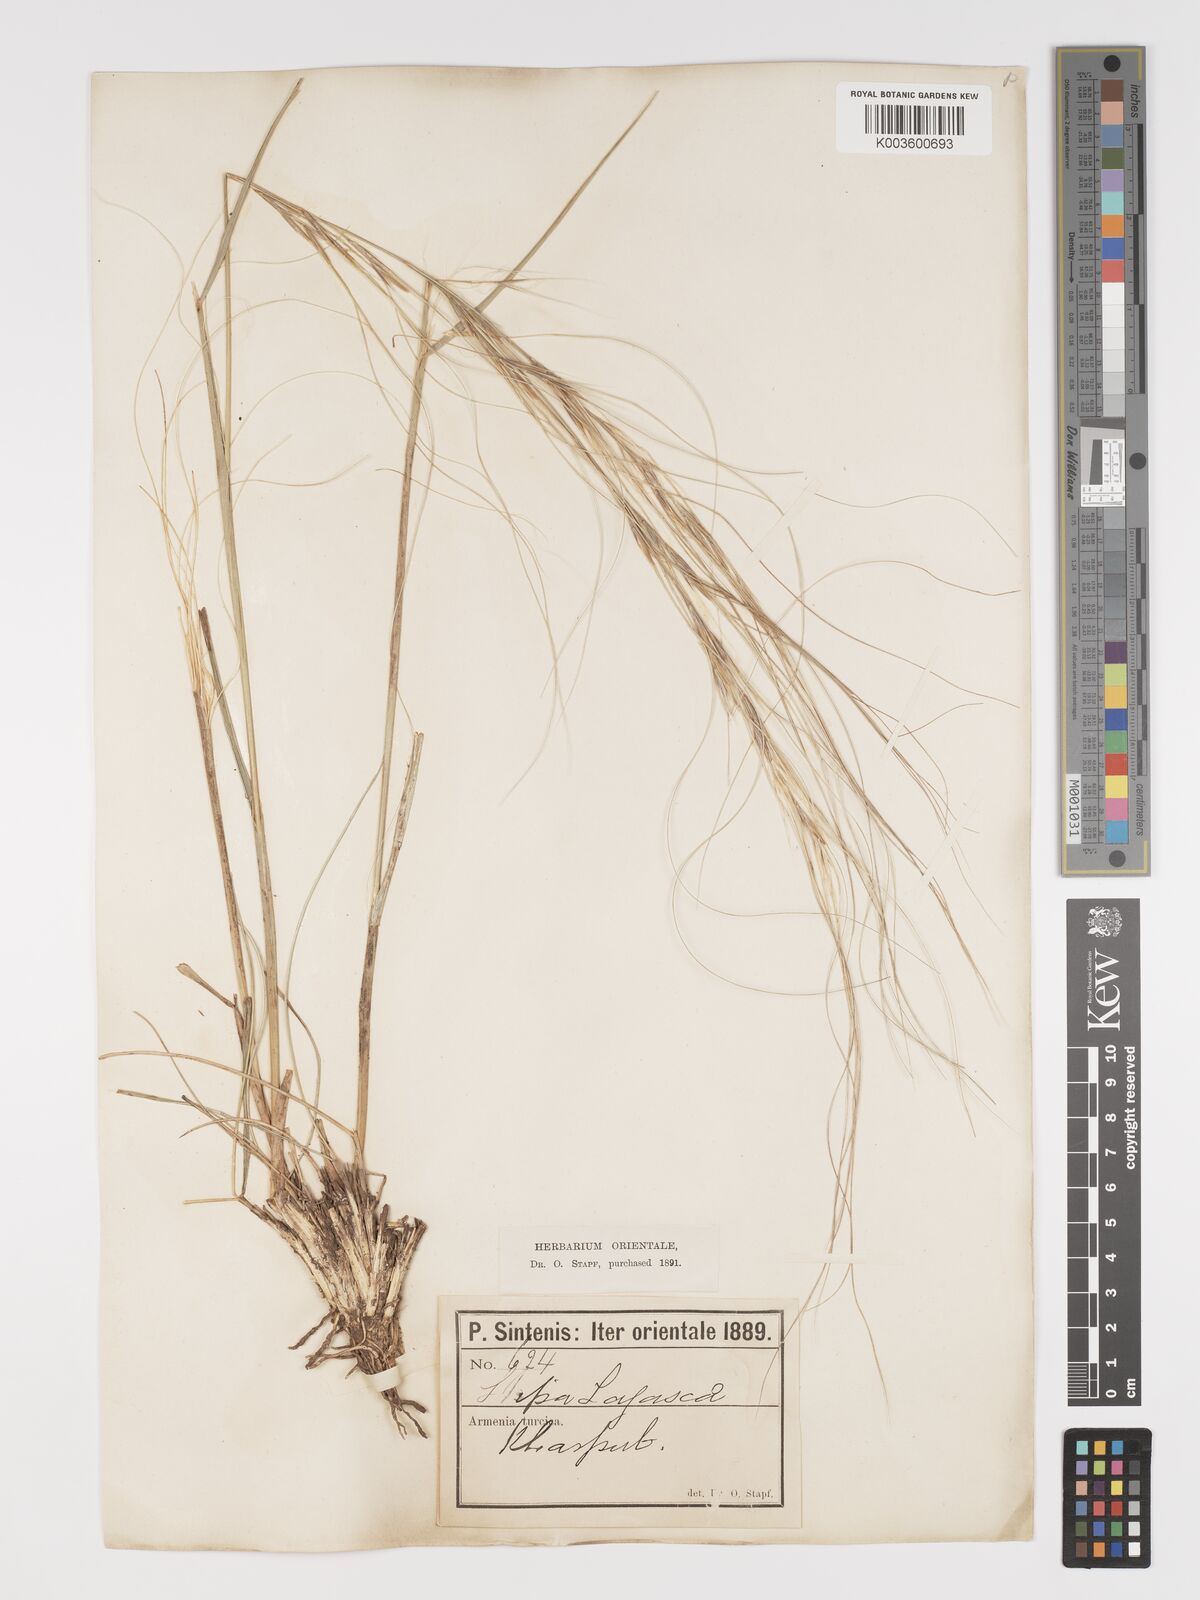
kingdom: Plantae
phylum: Tracheophyta
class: Liliopsida
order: Poales
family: Poaceae
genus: Stipa
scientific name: Stipa holosericea
